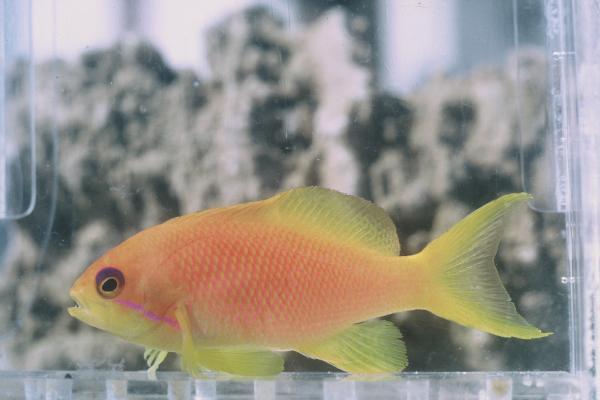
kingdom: Animalia
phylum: Chordata
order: Perciformes
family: Serranidae
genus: Pseudanthias
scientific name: Pseudanthias squamipinnis
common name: Scalefin anthias
